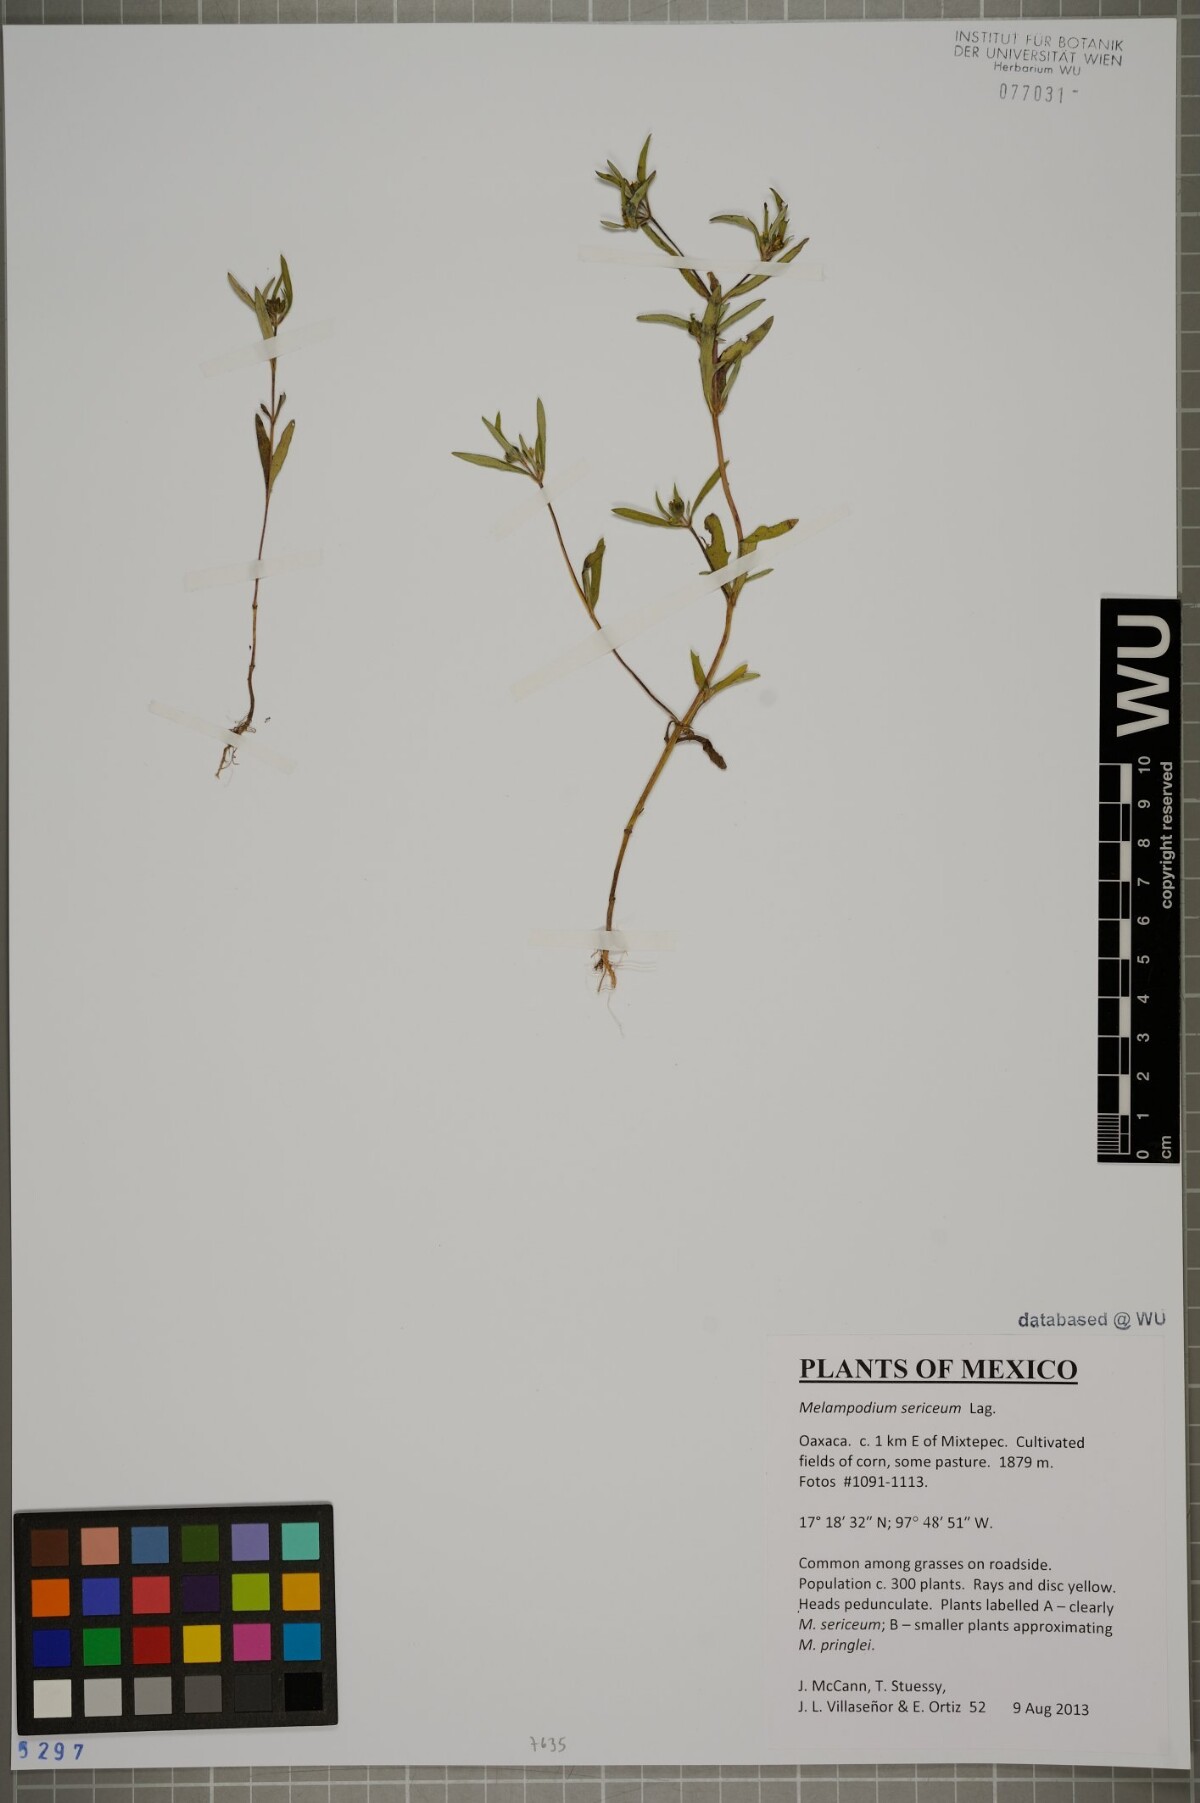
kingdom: Plantae
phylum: Tracheophyta
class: Magnoliopsida
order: Asterales
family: Asteraceae
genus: Melampodium
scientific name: Melampodium sericeum
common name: Rough blackfoot
